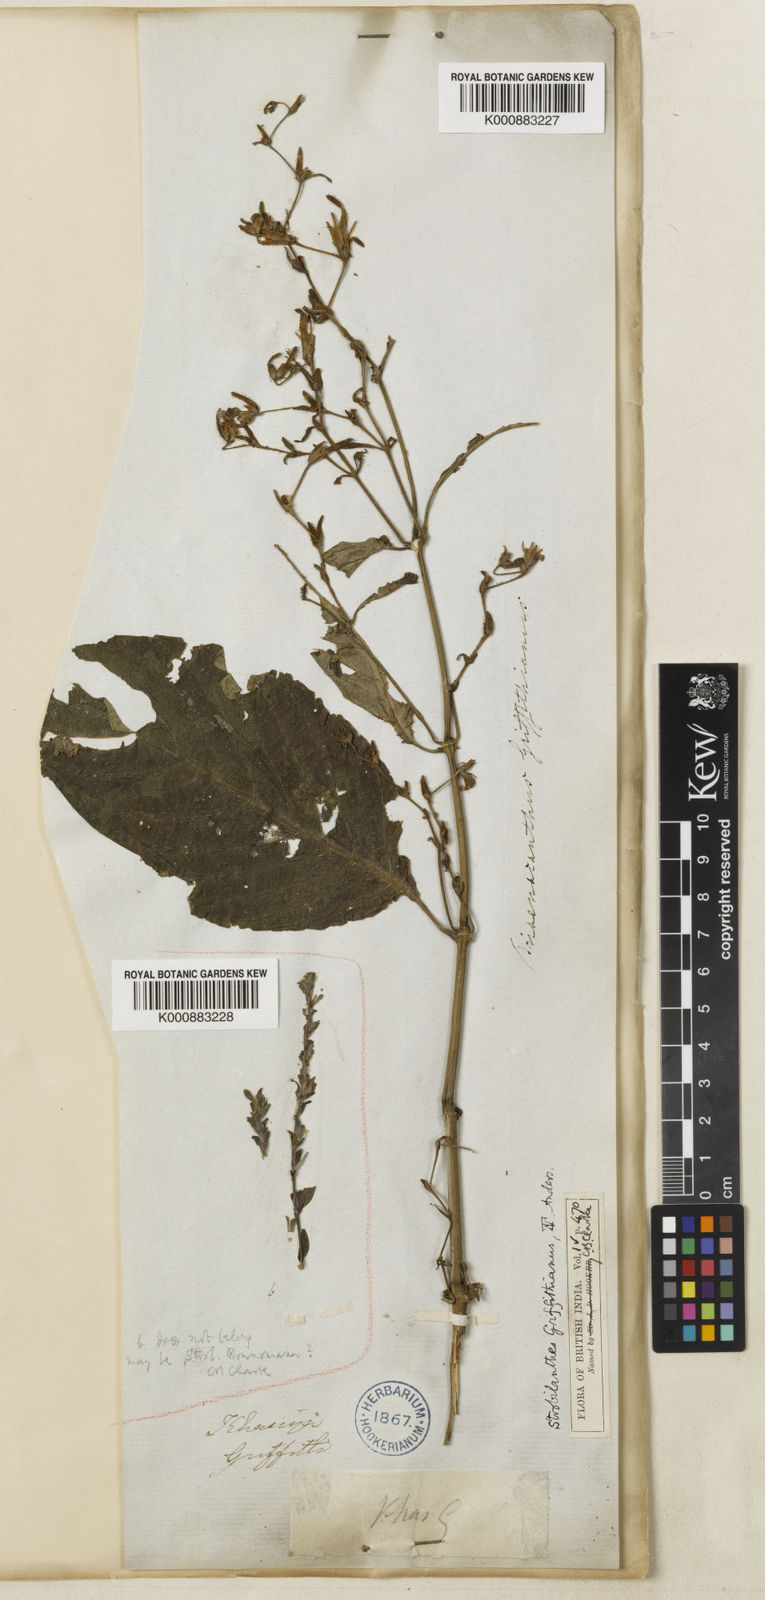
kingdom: Plantae
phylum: Tracheophyta
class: Magnoliopsida
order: Lamiales
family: Acanthaceae
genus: Strobilanthes
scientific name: Strobilanthes cusia
